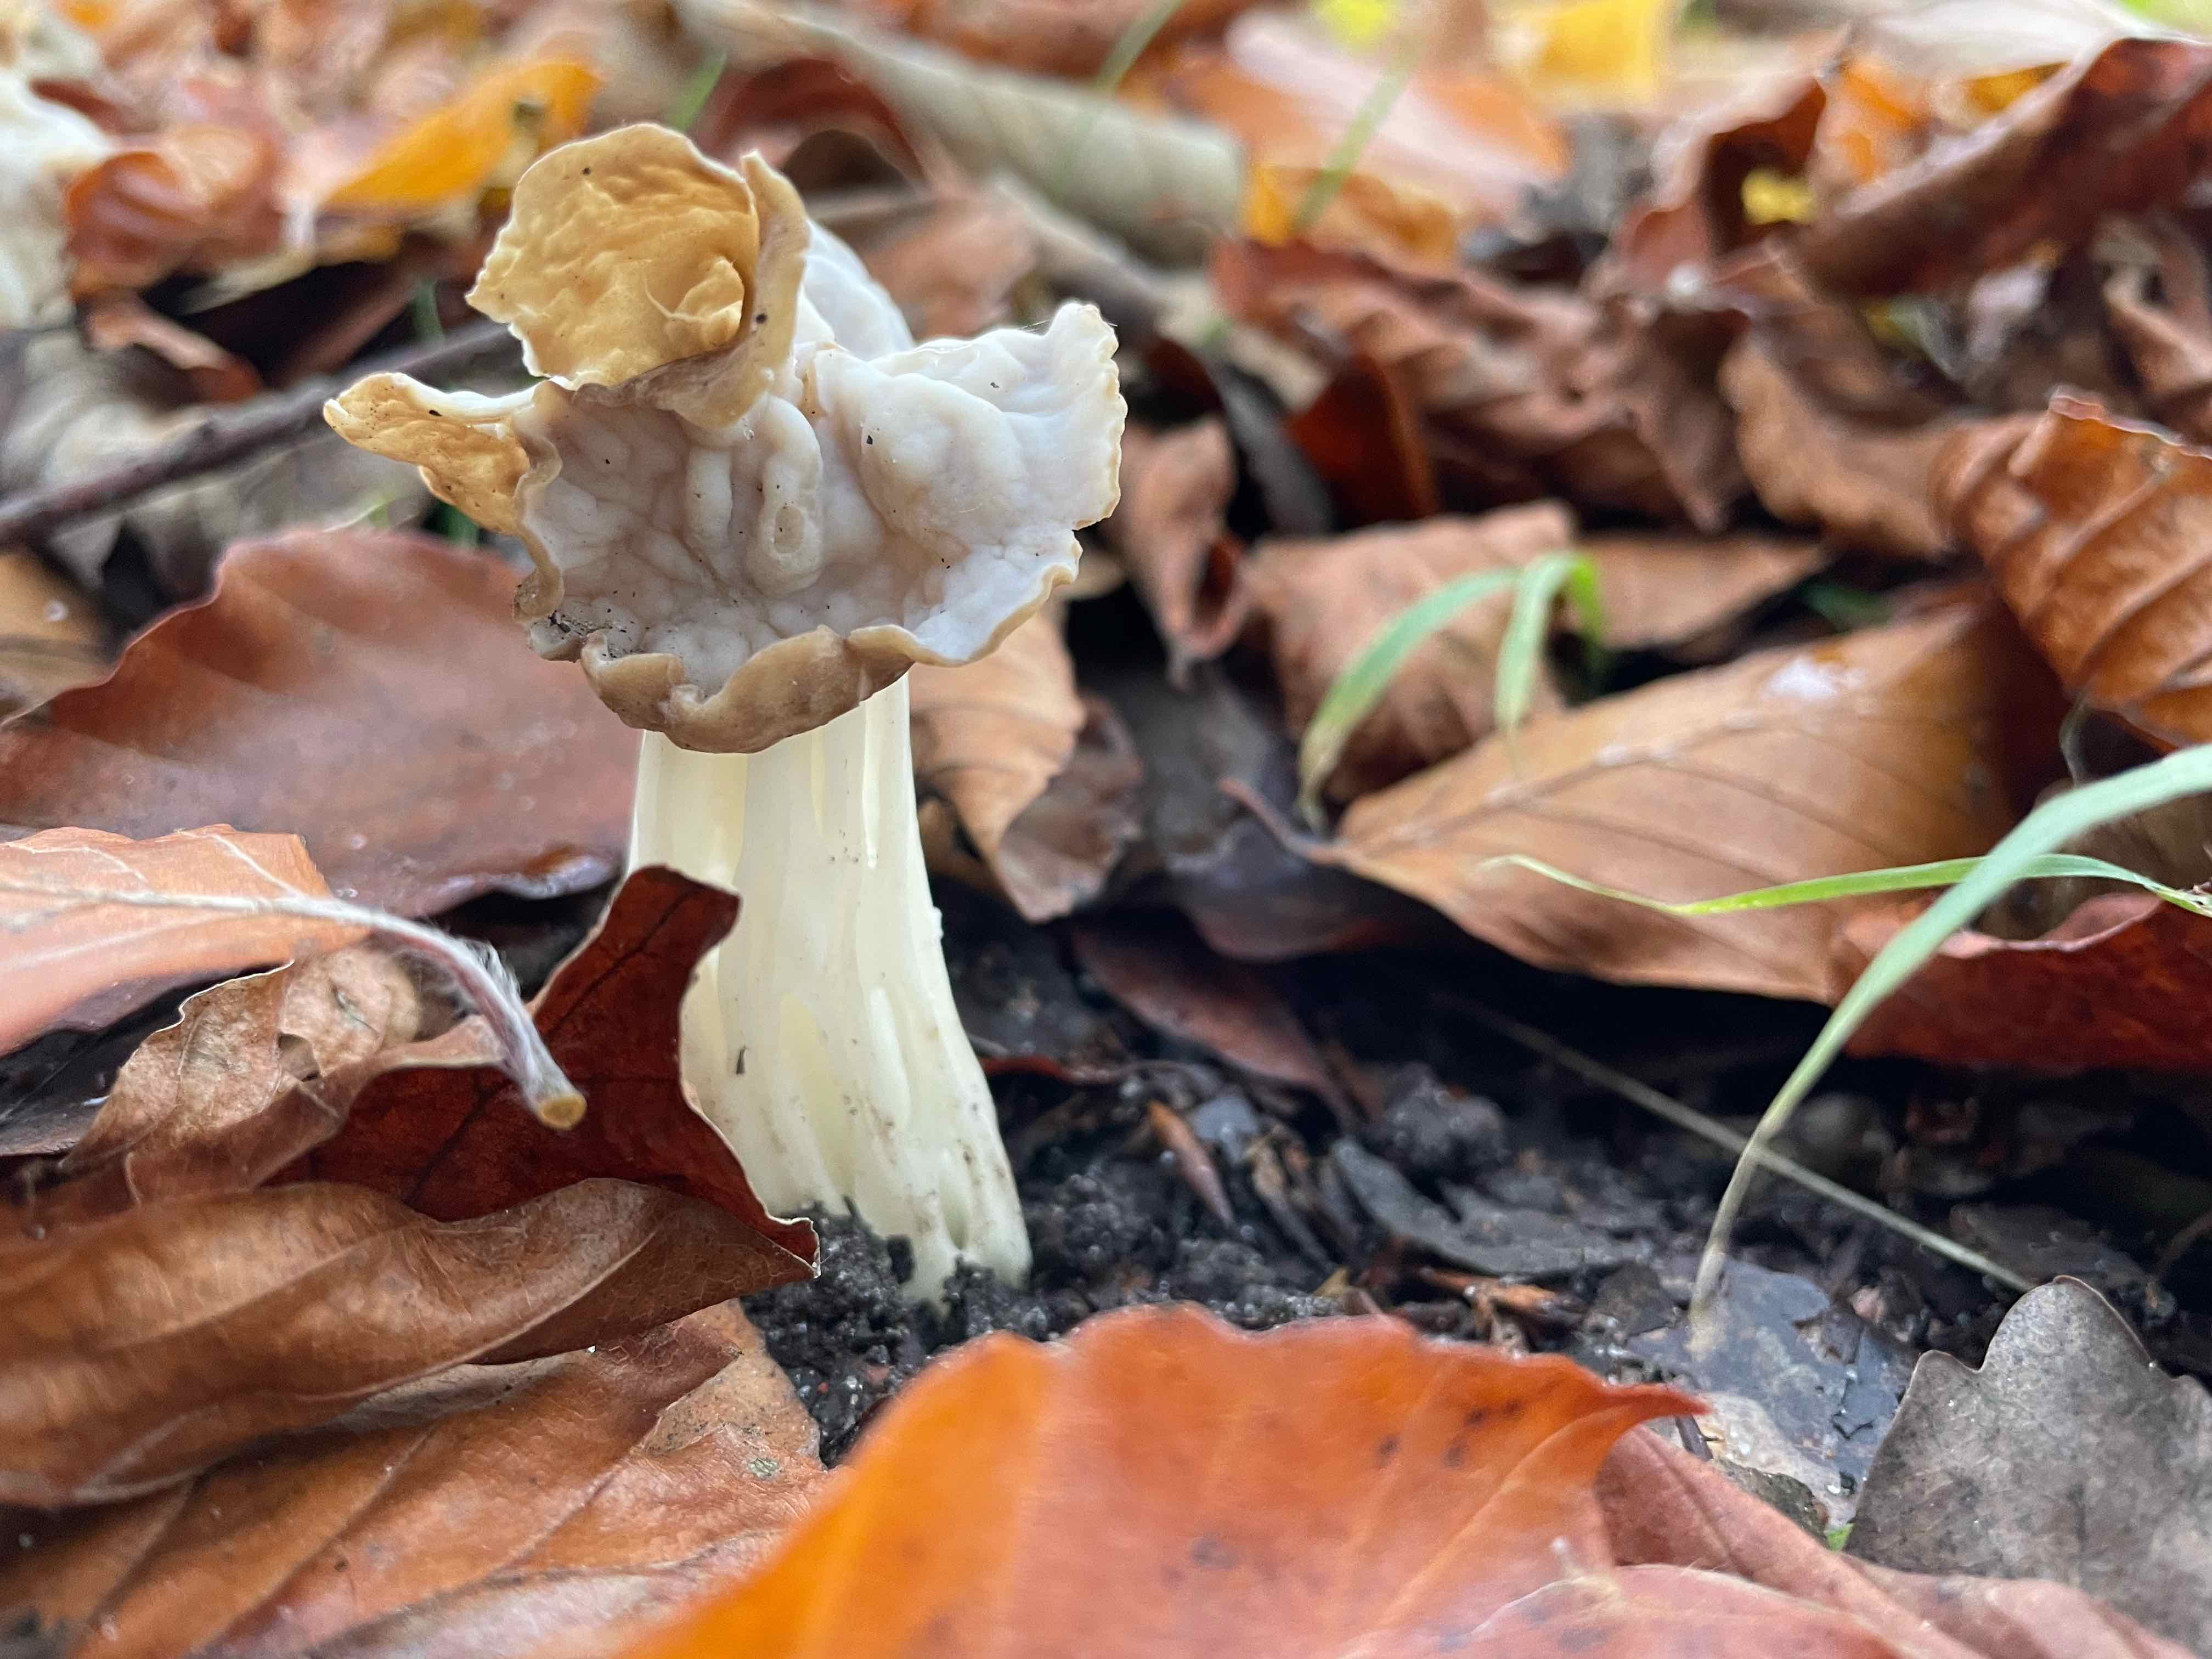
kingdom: Fungi
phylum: Ascomycota
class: Pezizomycetes
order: Pezizales
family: Helvellaceae
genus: Helvella
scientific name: Helvella crispa
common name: kruset foldhat
